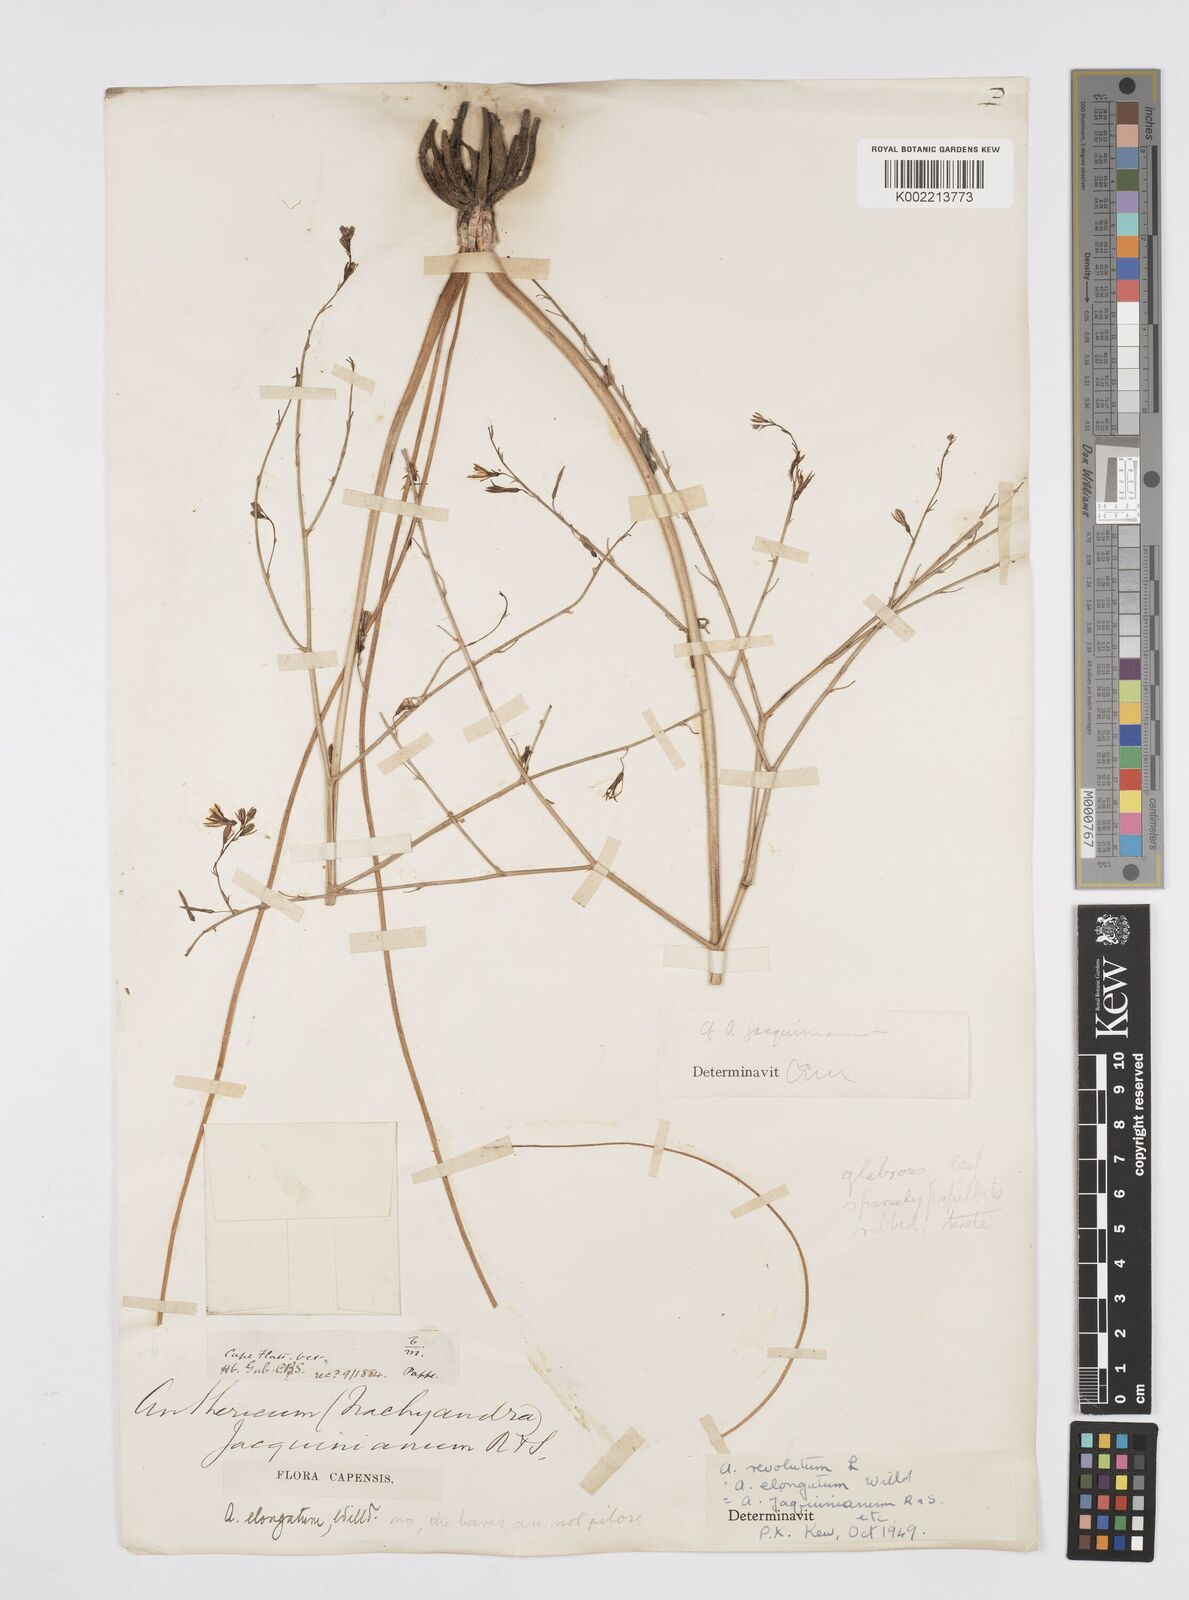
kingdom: Plantae
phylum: Tracheophyta
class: Liliopsida
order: Asparagales
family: Asphodelaceae
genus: Trachyandra
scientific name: Trachyandra revoluta
